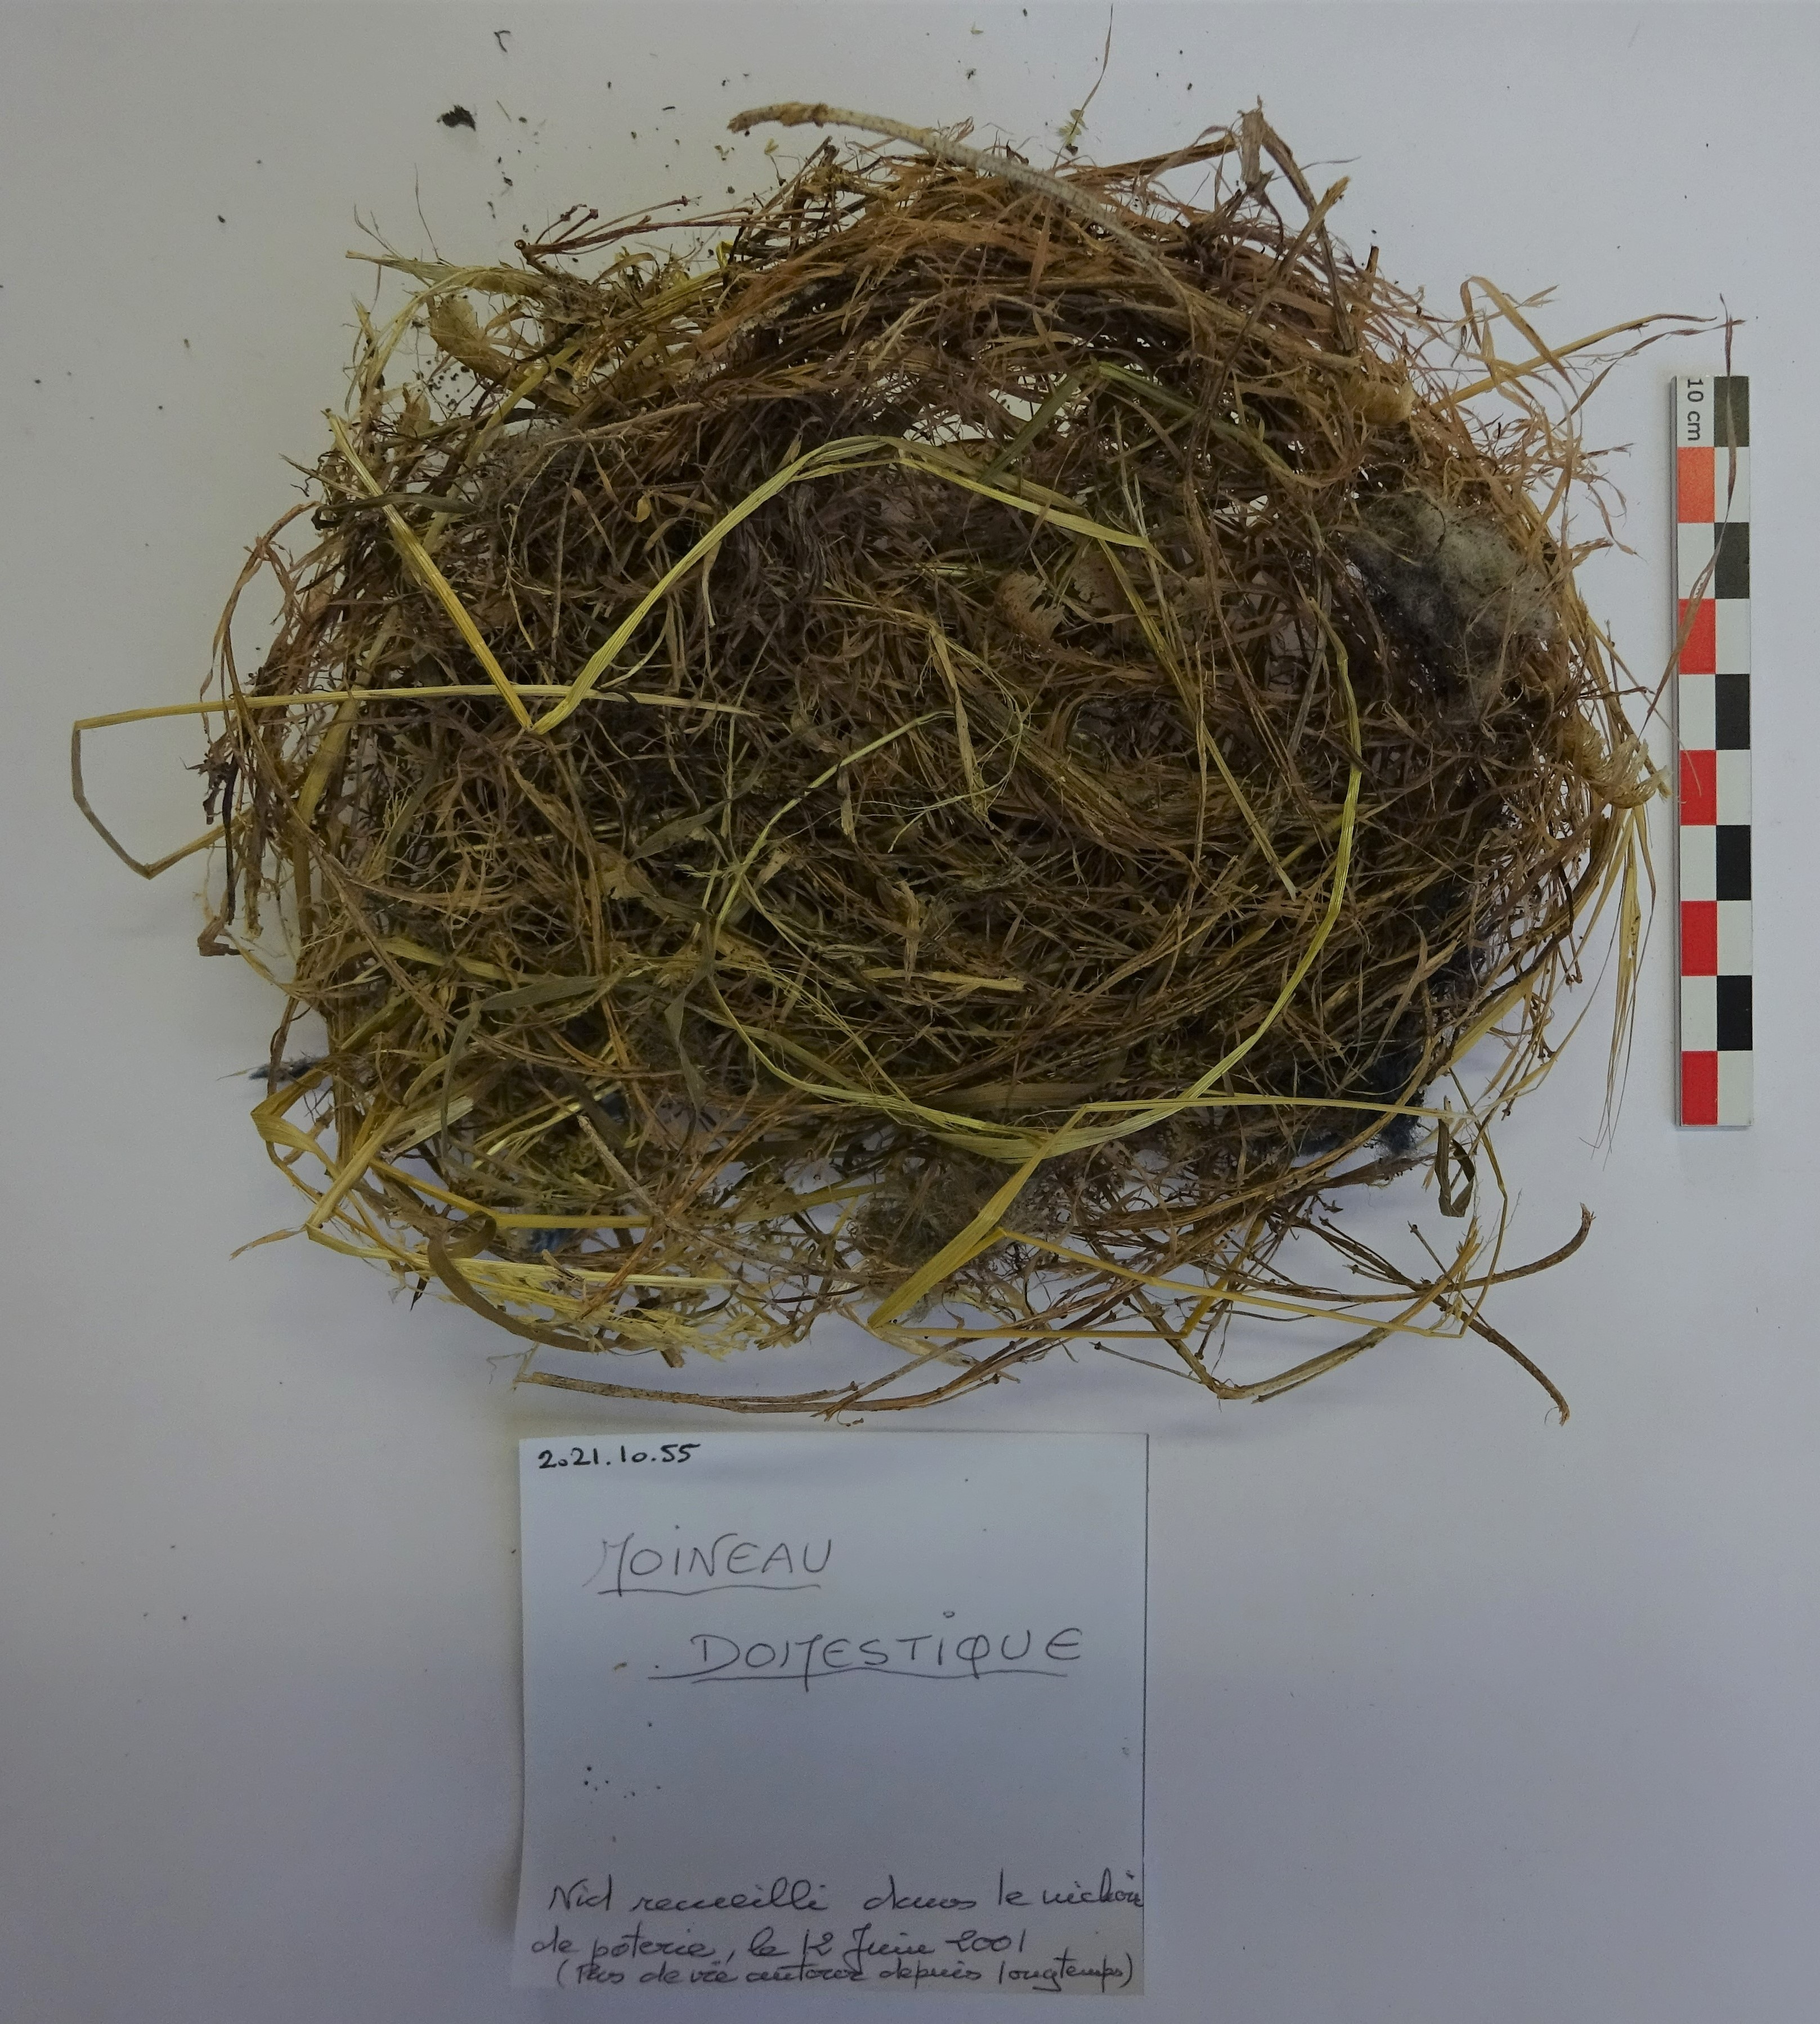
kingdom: Animalia
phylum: Chordata
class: Aves
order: Passeriformes
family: Passeridae
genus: Passer
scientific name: Passer domesticus
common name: House sparrow
